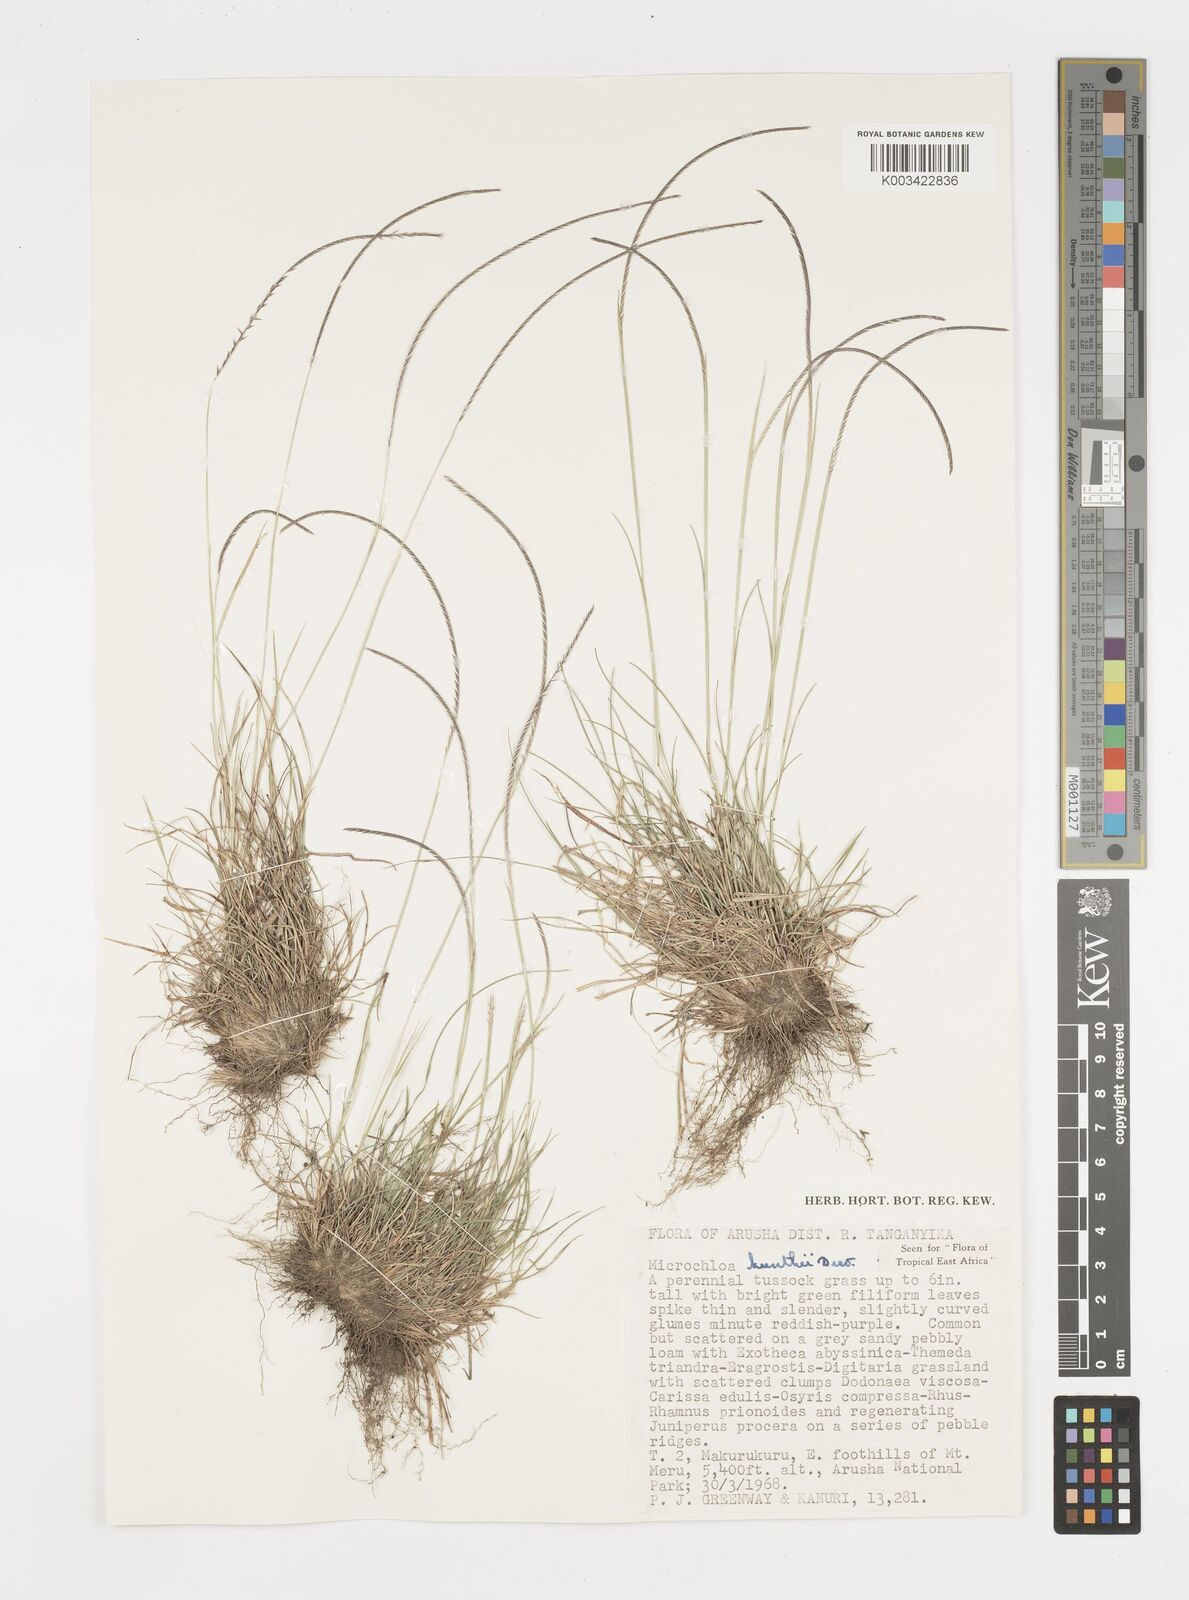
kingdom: Plantae
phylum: Tracheophyta
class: Liliopsida
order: Poales
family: Poaceae
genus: Microchloa
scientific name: Microchloa kunthii
